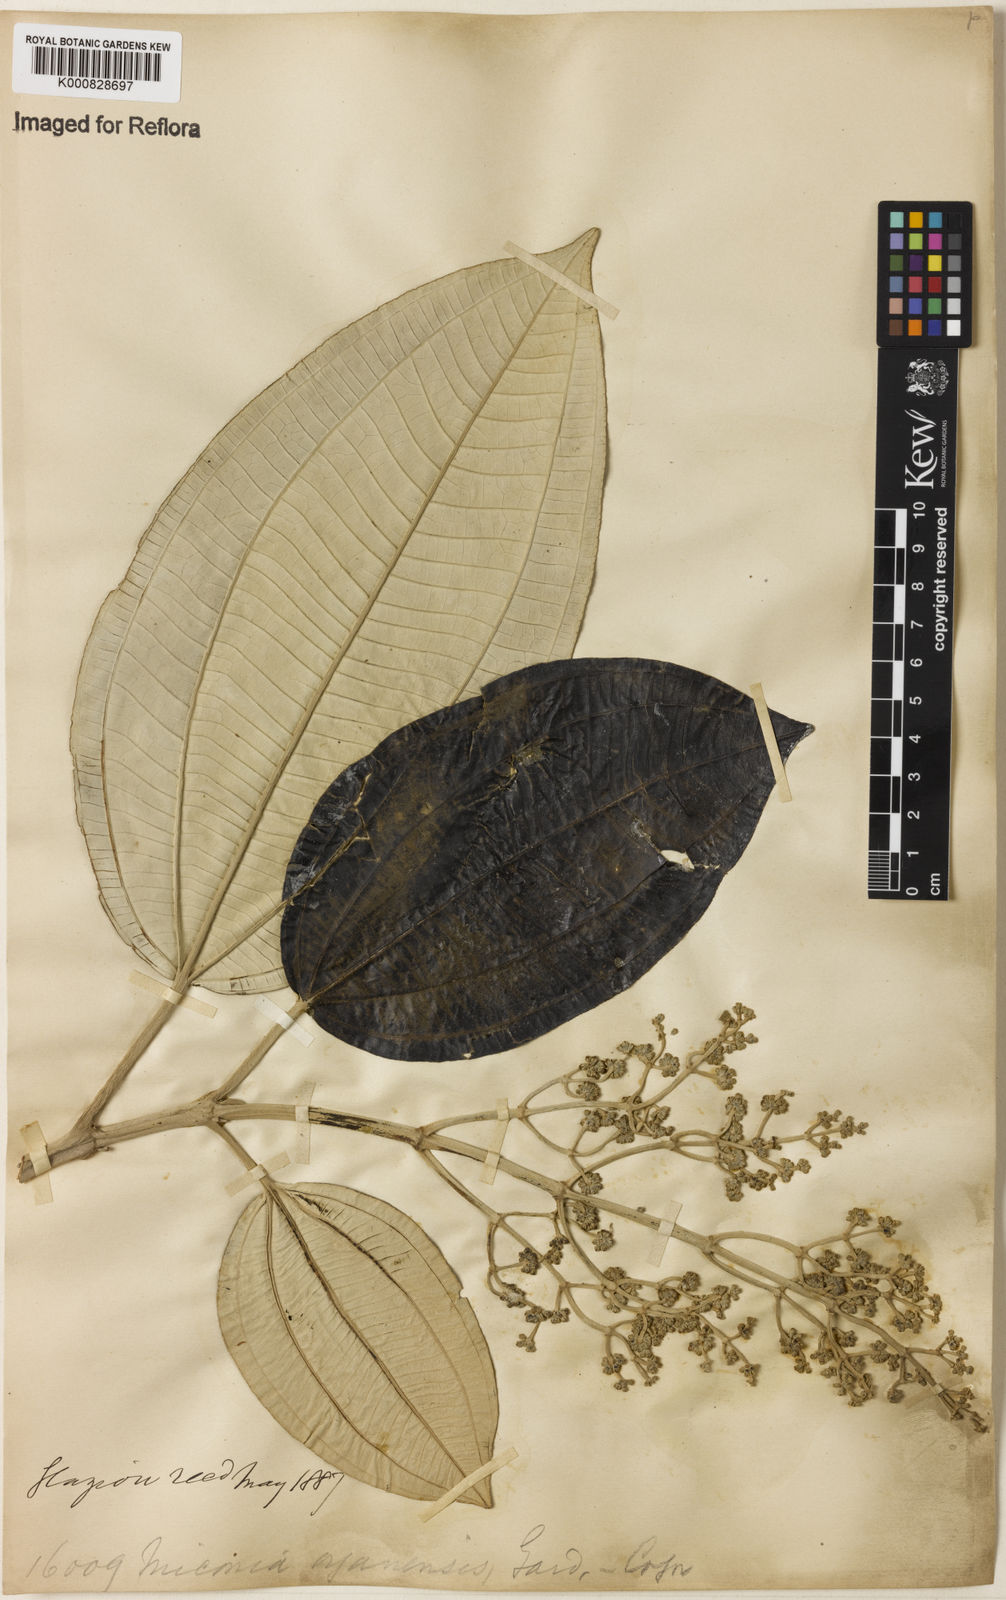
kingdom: Plantae
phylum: Tracheophyta
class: Magnoliopsida
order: Myrtales
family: Melastomataceae
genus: Miconia
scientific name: Miconia organensis
